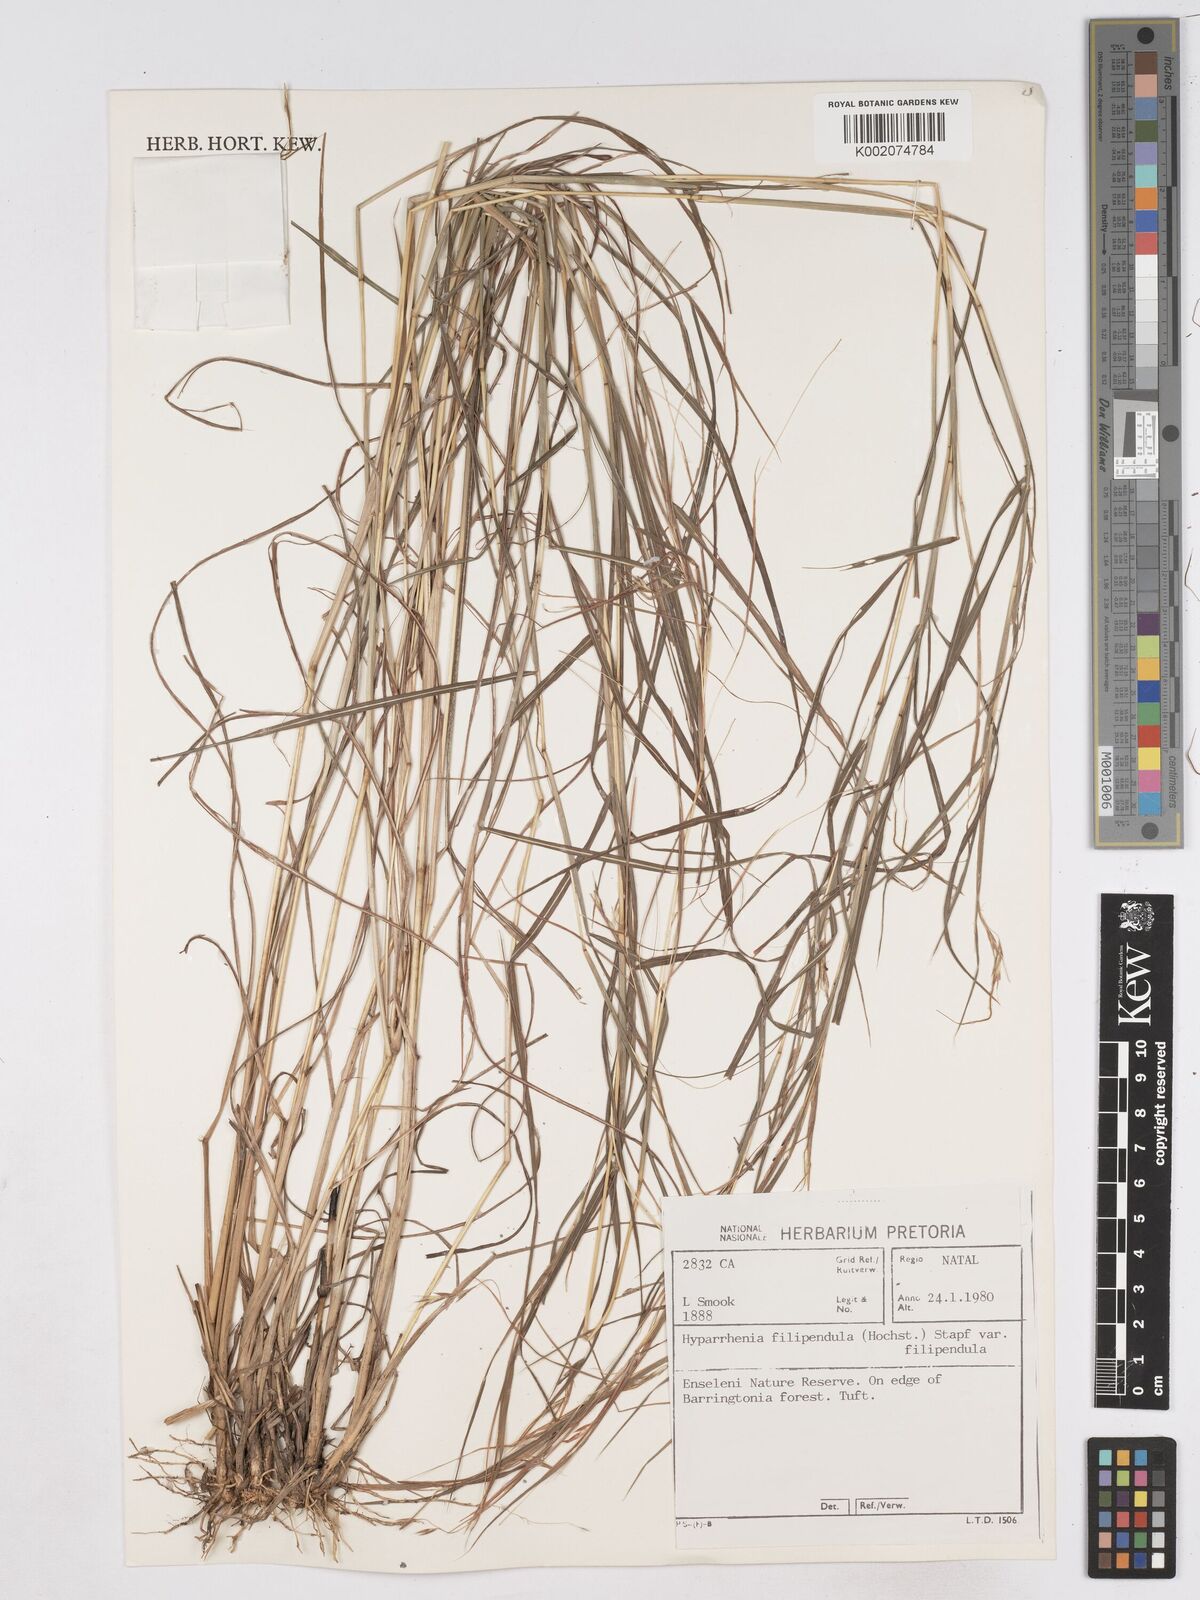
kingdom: Plantae
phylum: Tracheophyta
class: Liliopsida
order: Poales
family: Poaceae
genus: Hyparrhenia
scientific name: Hyparrhenia filipendula
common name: Tambookie grass
